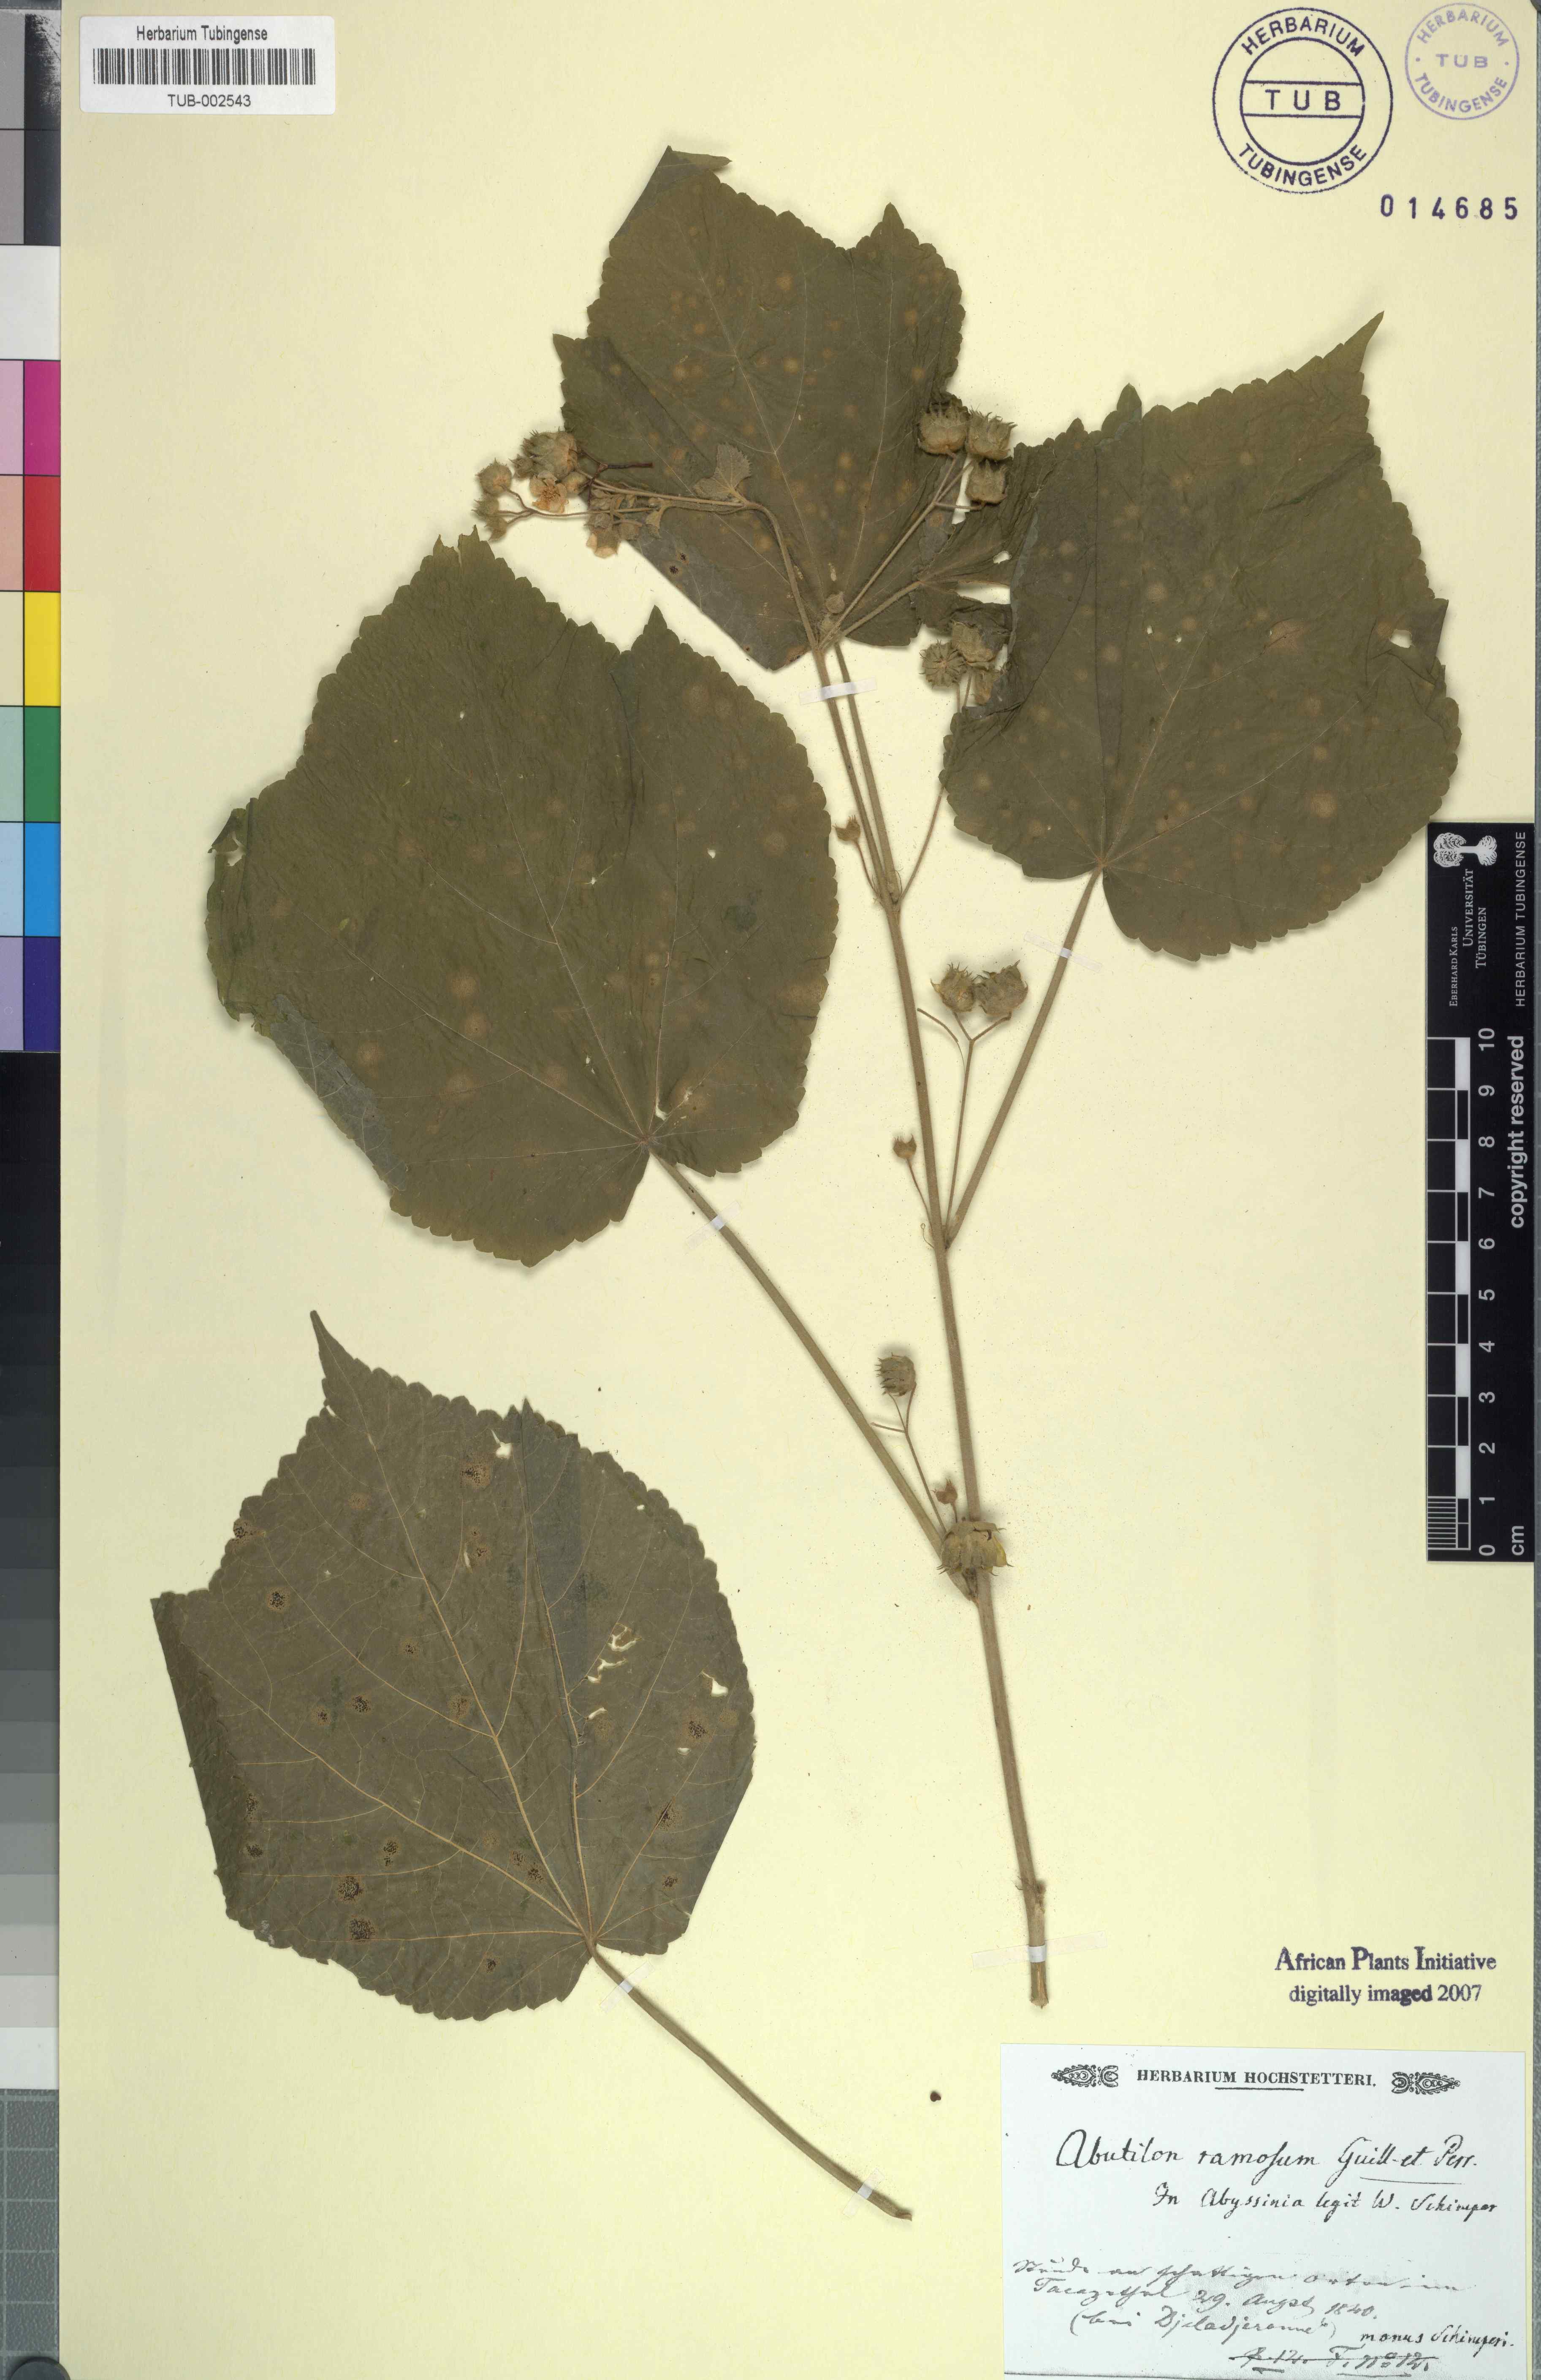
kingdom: Plantae
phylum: Tracheophyta
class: Magnoliopsida
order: Malvales
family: Malvaceae
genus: Abutilon
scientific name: Abutilon ramosum
